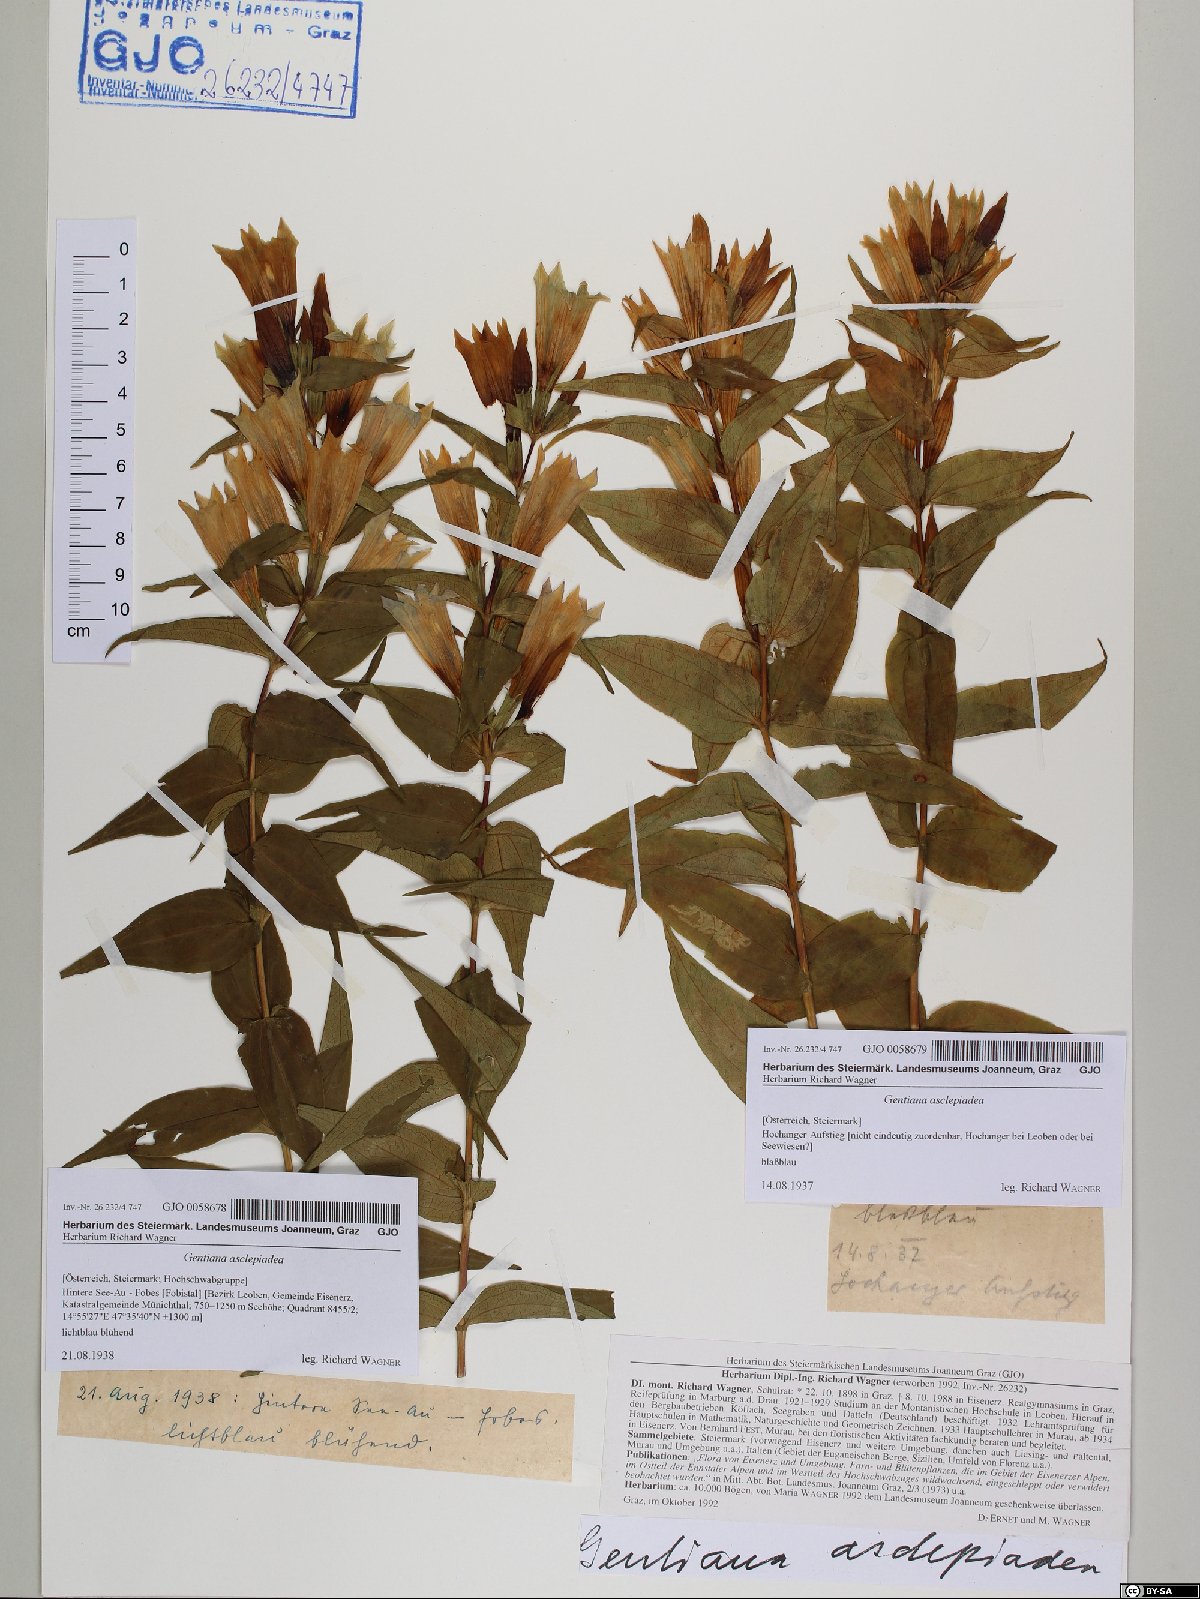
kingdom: Plantae
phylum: Tracheophyta
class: Magnoliopsida
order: Gentianales
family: Gentianaceae
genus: Gentiana
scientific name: Gentiana asclepiadea
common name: Willow gentian
